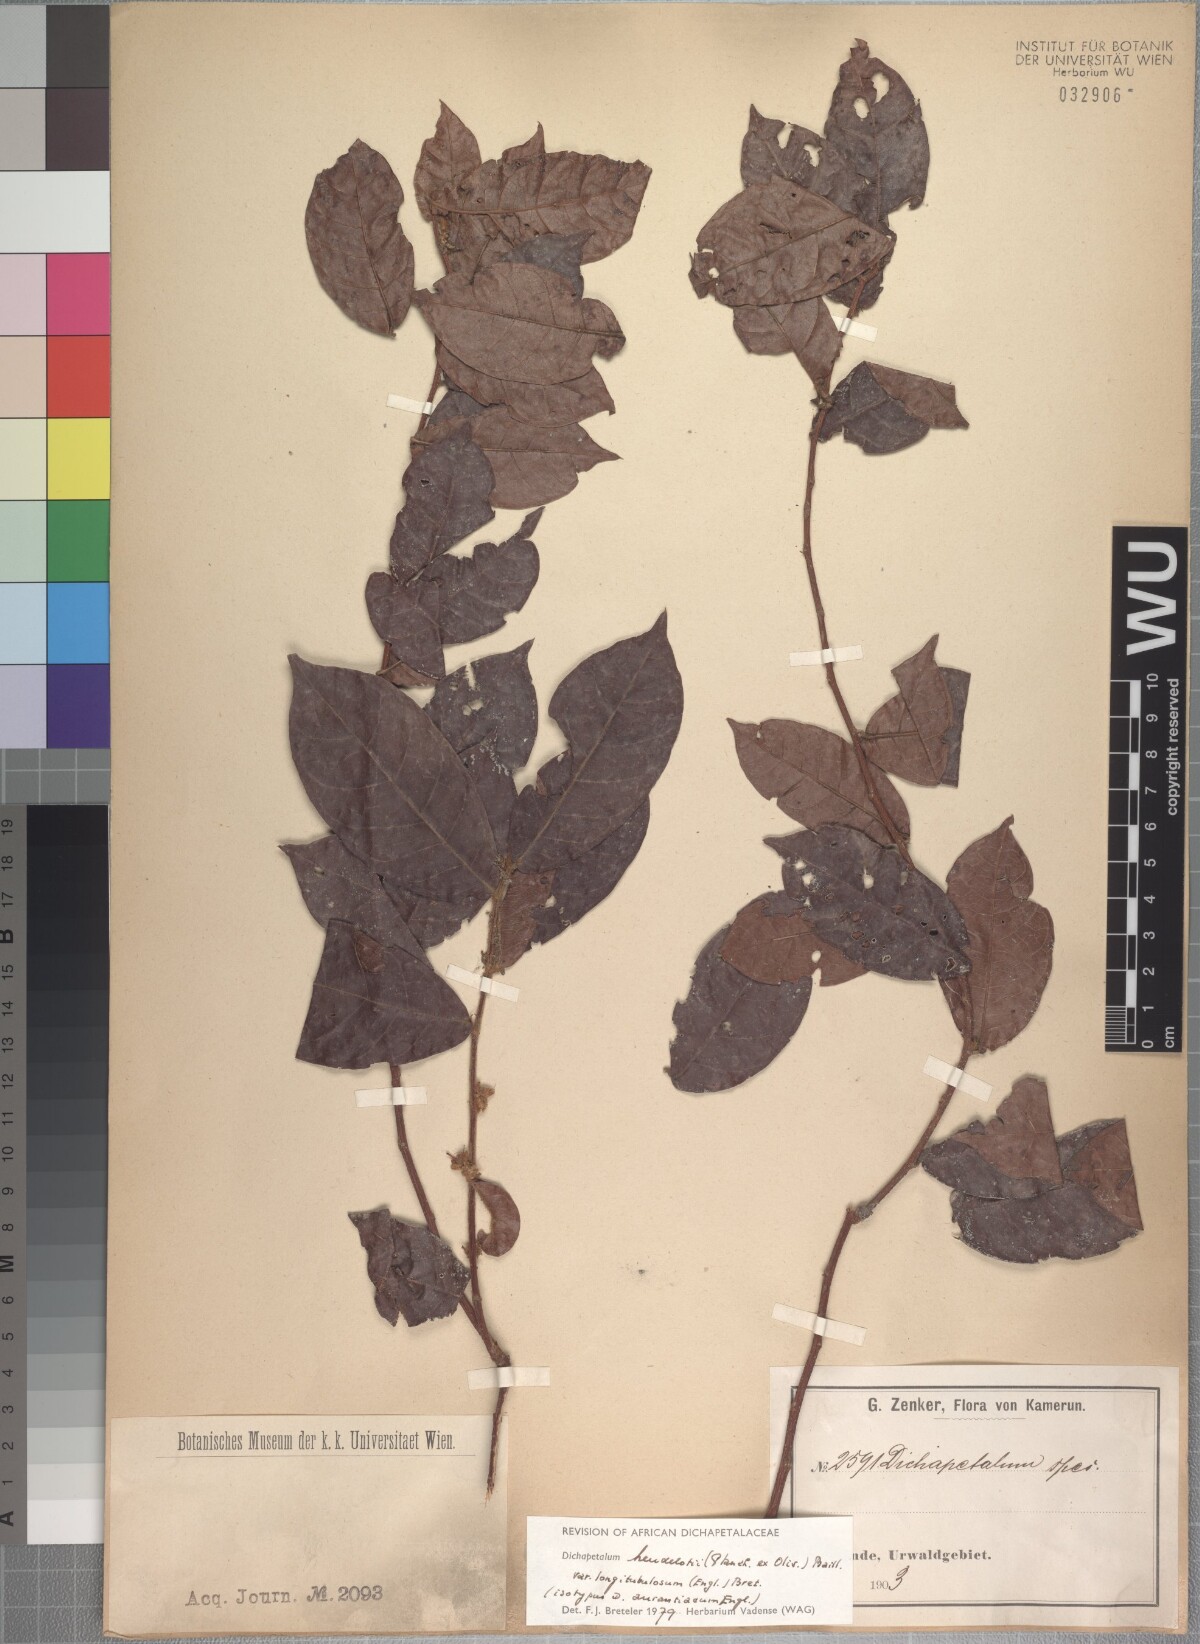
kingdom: Plantae
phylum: Tracheophyta
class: Magnoliopsida
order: Malpighiales
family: Dichapetalaceae
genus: Dichapetalum
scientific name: Dichapetalum heudelotii
